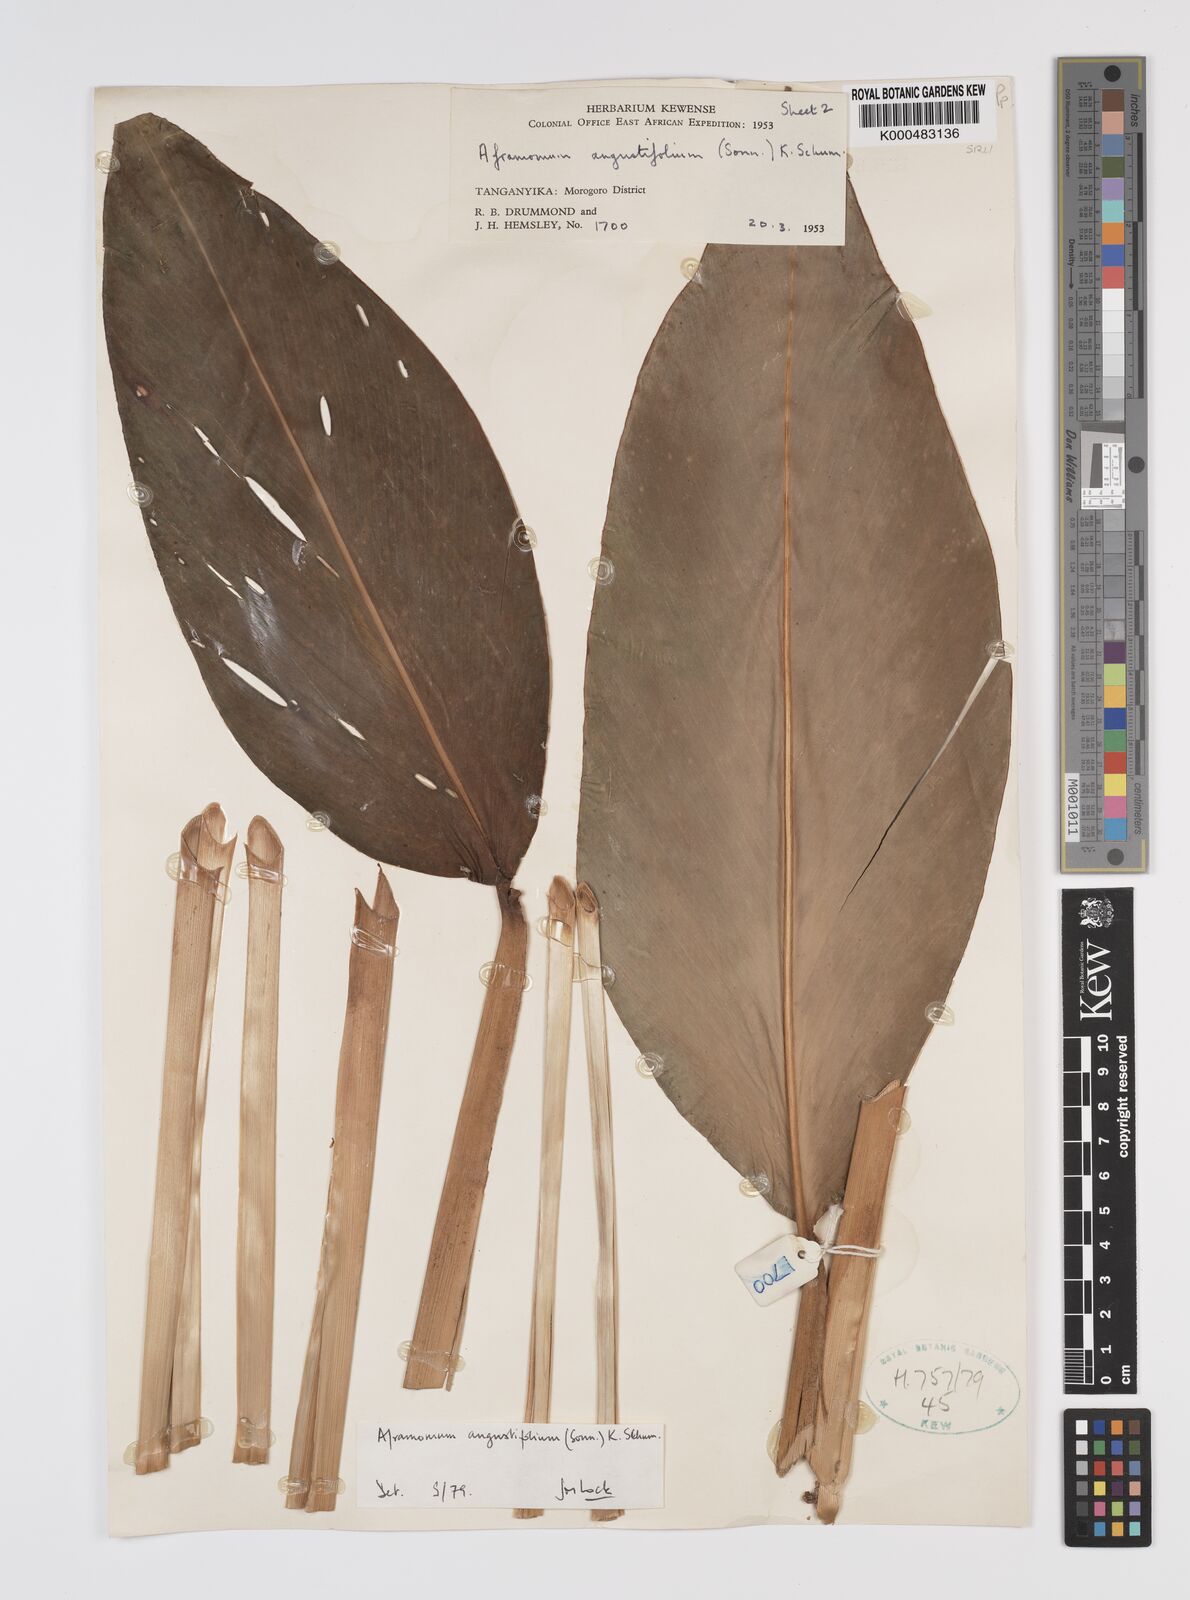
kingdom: Plantae
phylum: Tracheophyta
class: Liliopsida
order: Zingiberales
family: Zingiberaceae
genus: Aframomum
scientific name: Aframomum angustifolium
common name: Guinea grains
